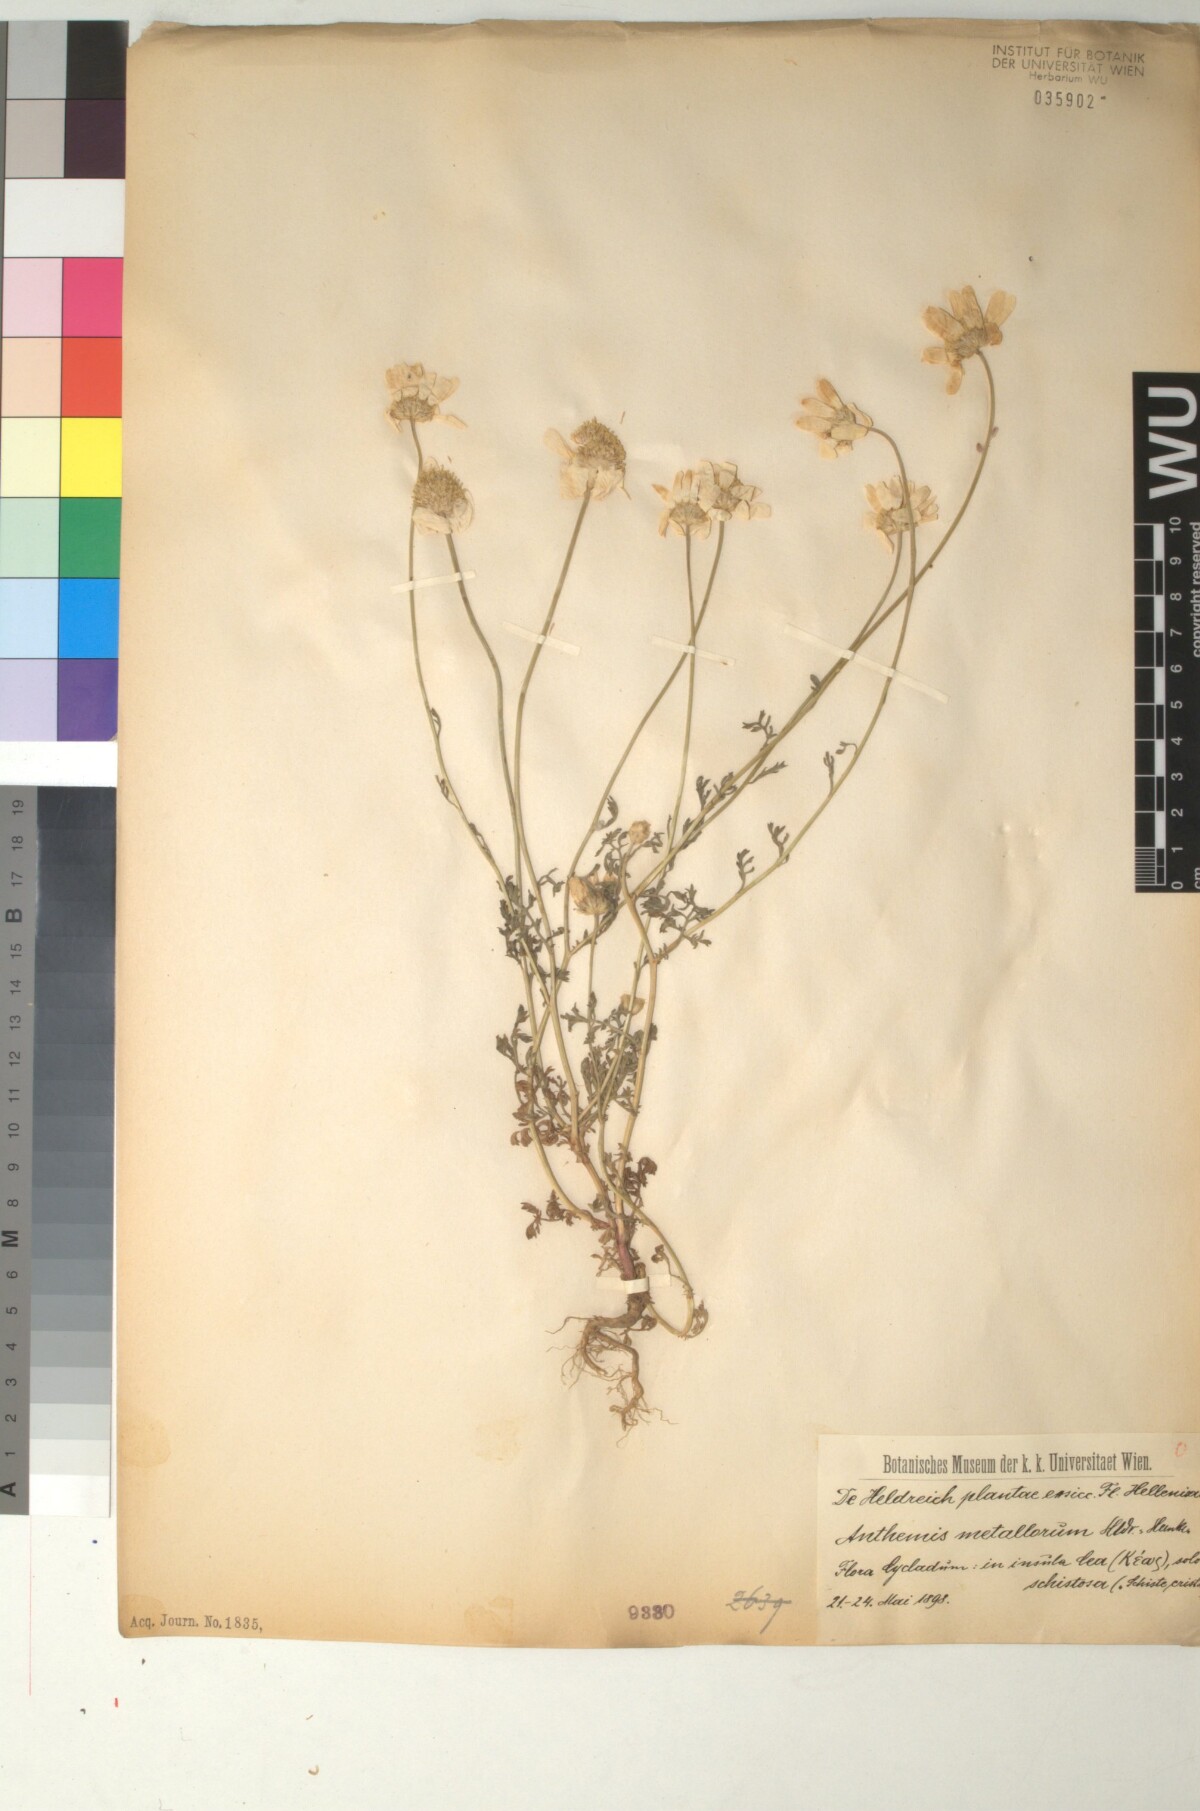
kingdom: Plantae
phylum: Tracheophyta
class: Magnoliopsida
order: Asterales
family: Asteraceae
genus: Anthemis
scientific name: Anthemis auriculata
